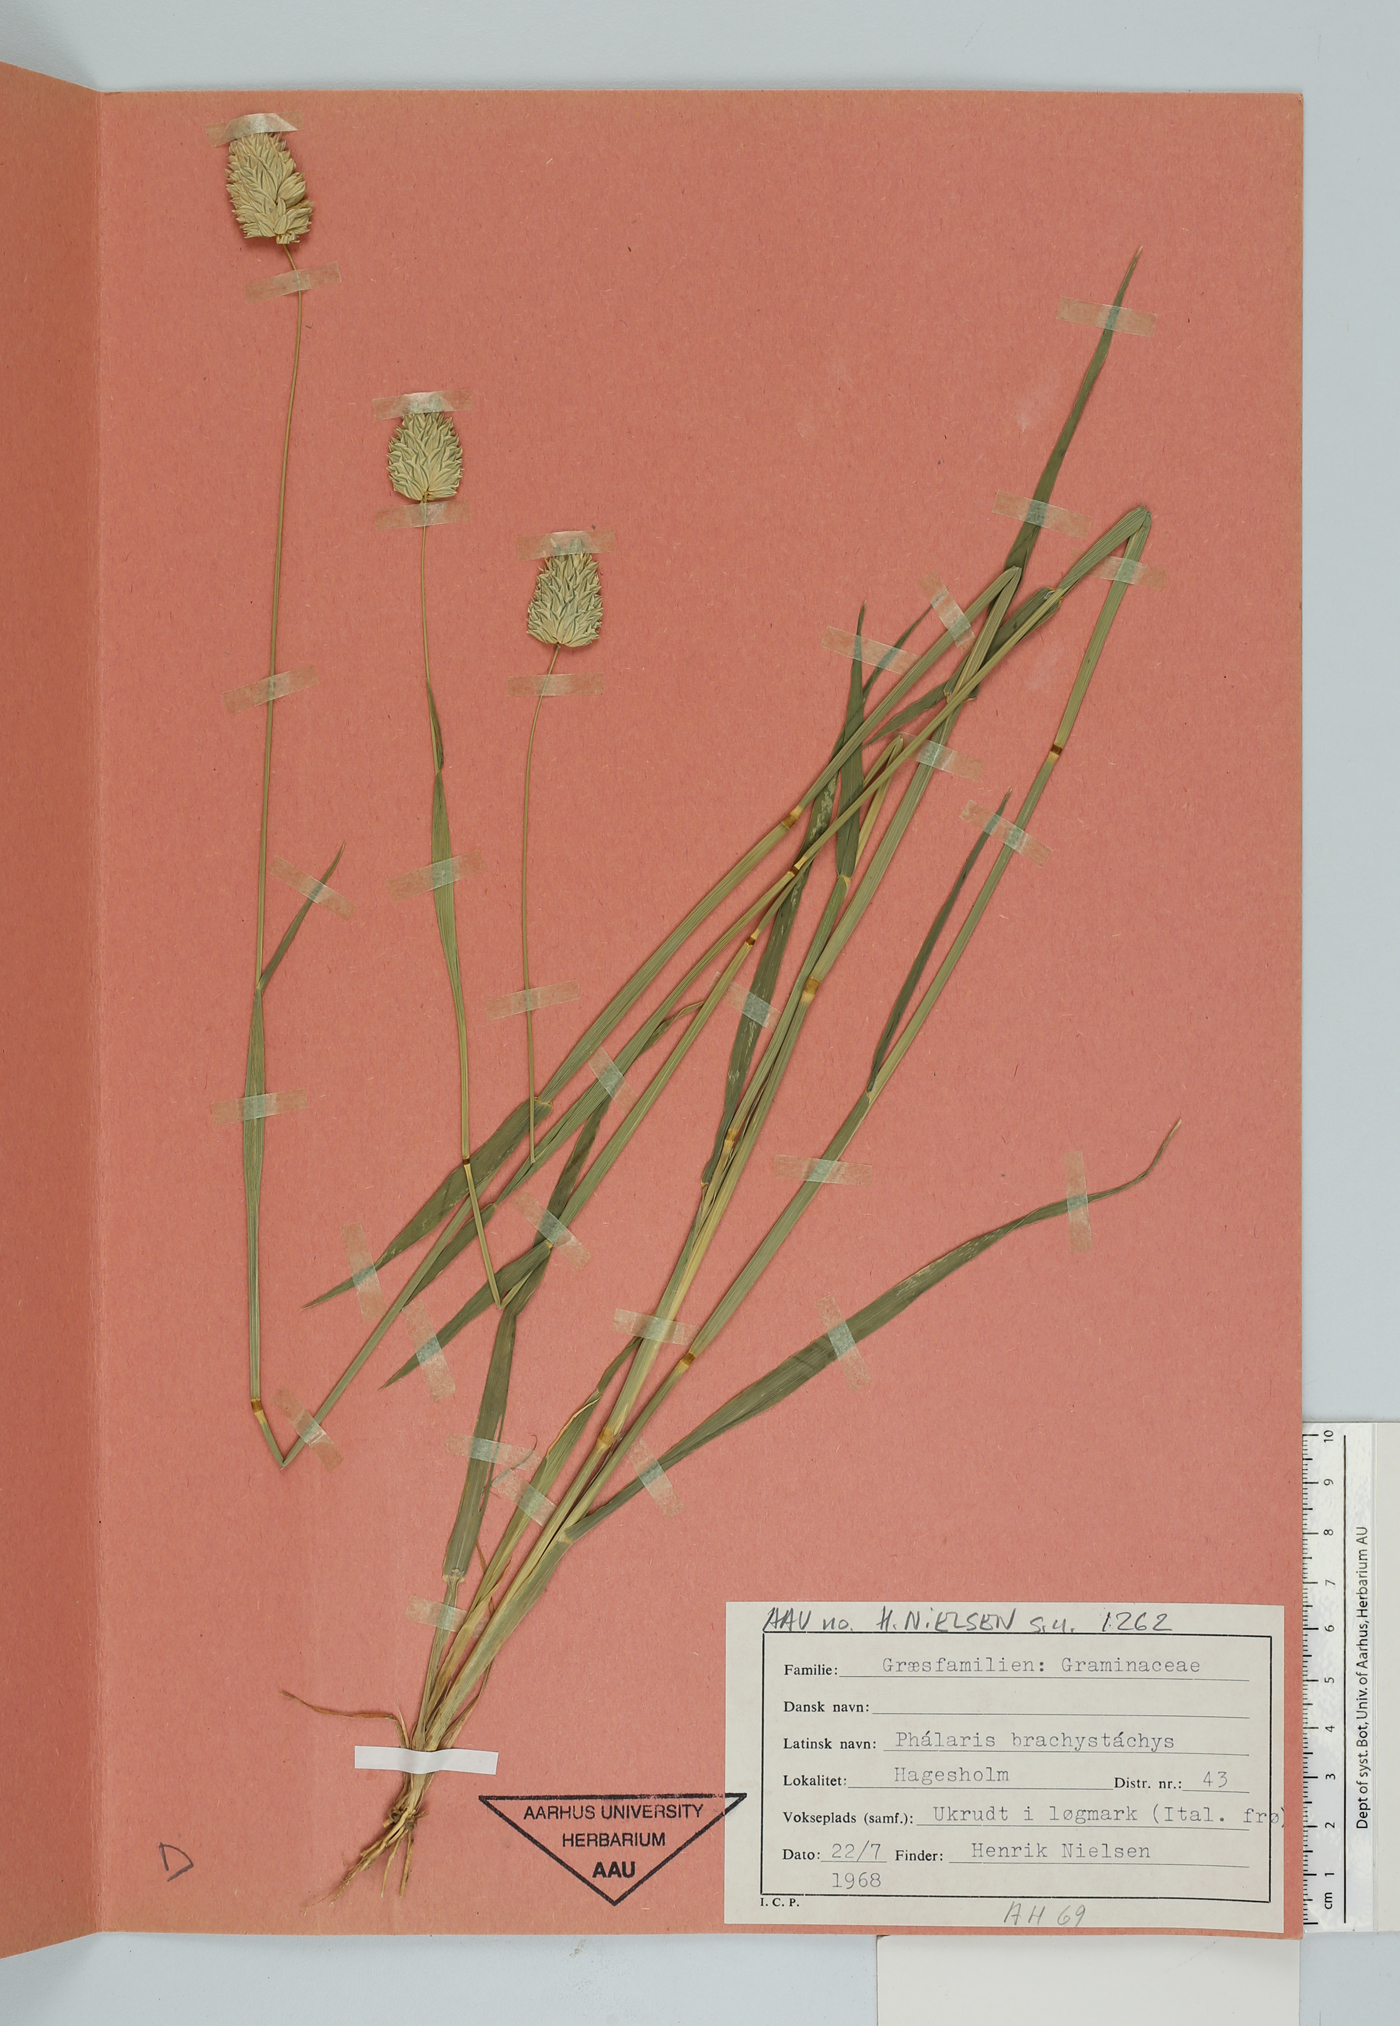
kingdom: Plantae
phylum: Tracheophyta
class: Liliopsida
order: Poales
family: Poaceae
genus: Phalaris
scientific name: Phalaris brachystachys
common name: Confused canary-grass
